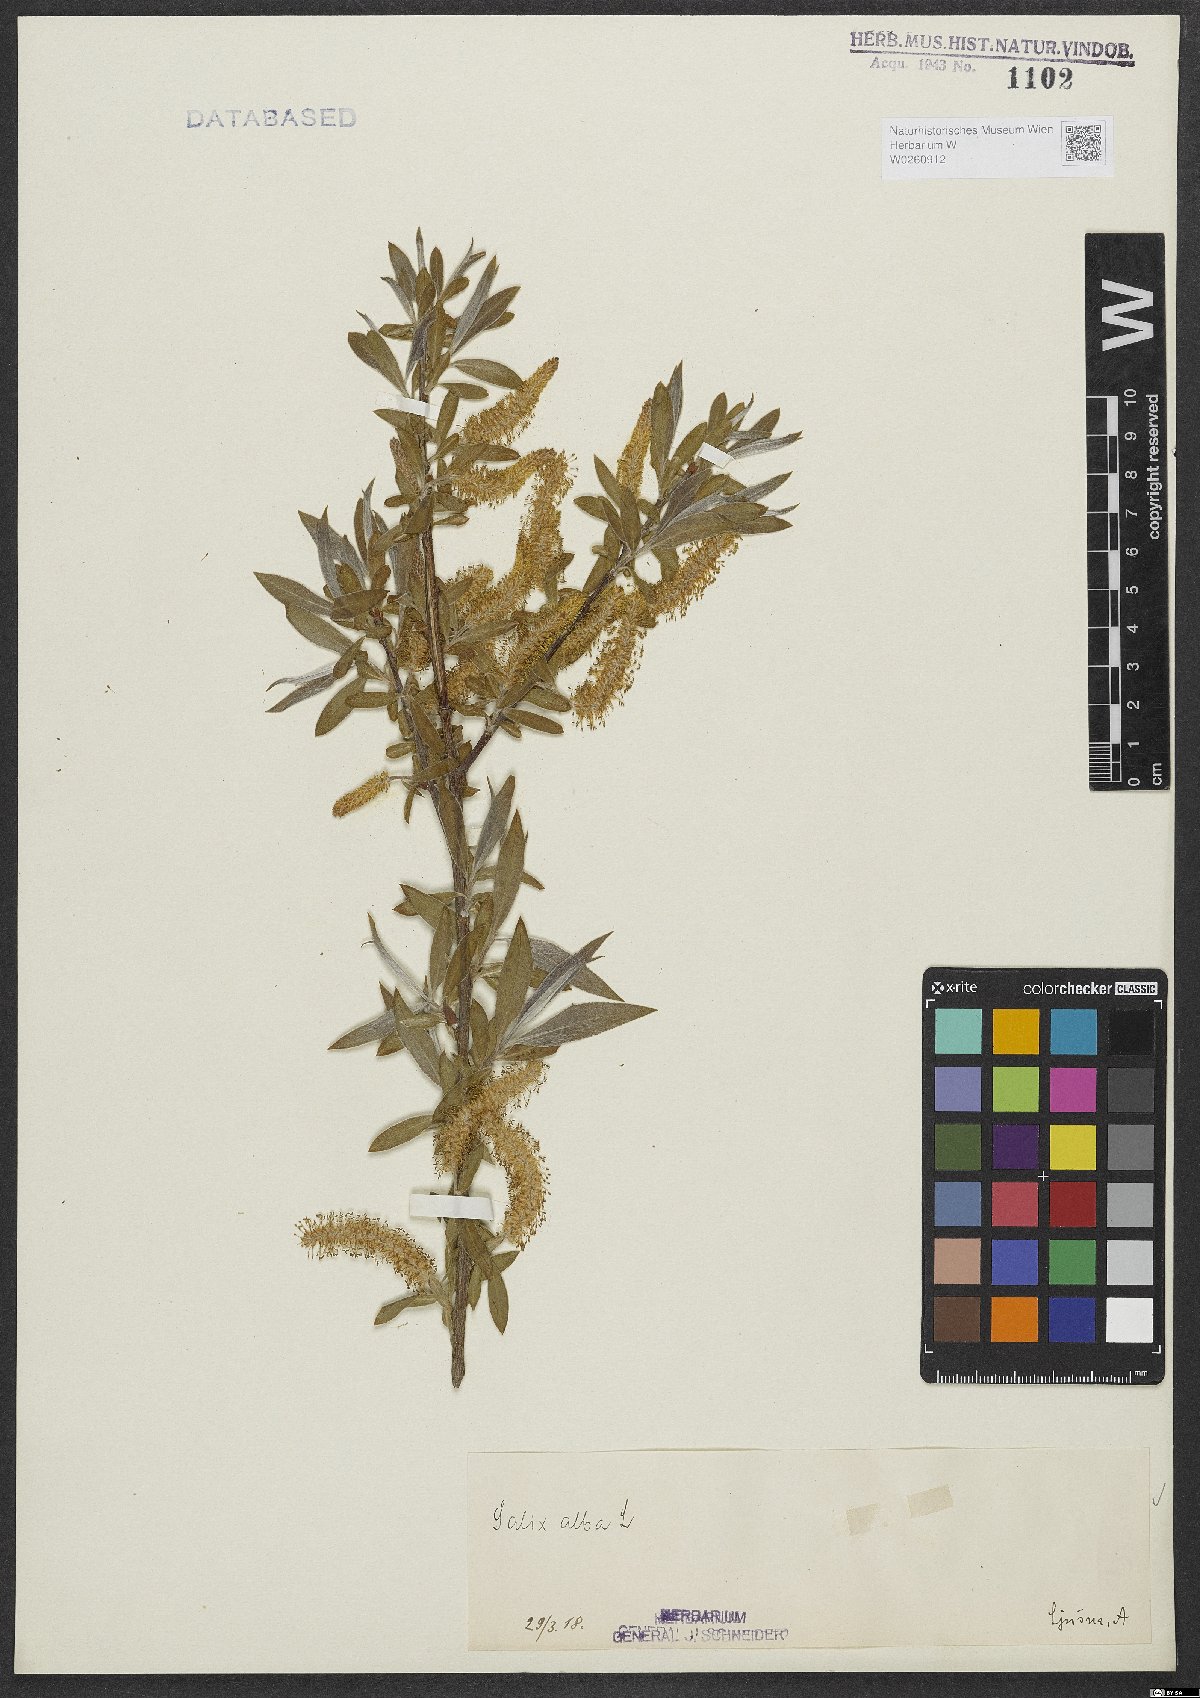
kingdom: Plantae
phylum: Tracheophyta
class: Magnoliopsida
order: Malpighiales
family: Salicaceae
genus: Salix
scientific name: Salix alba
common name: White willow
